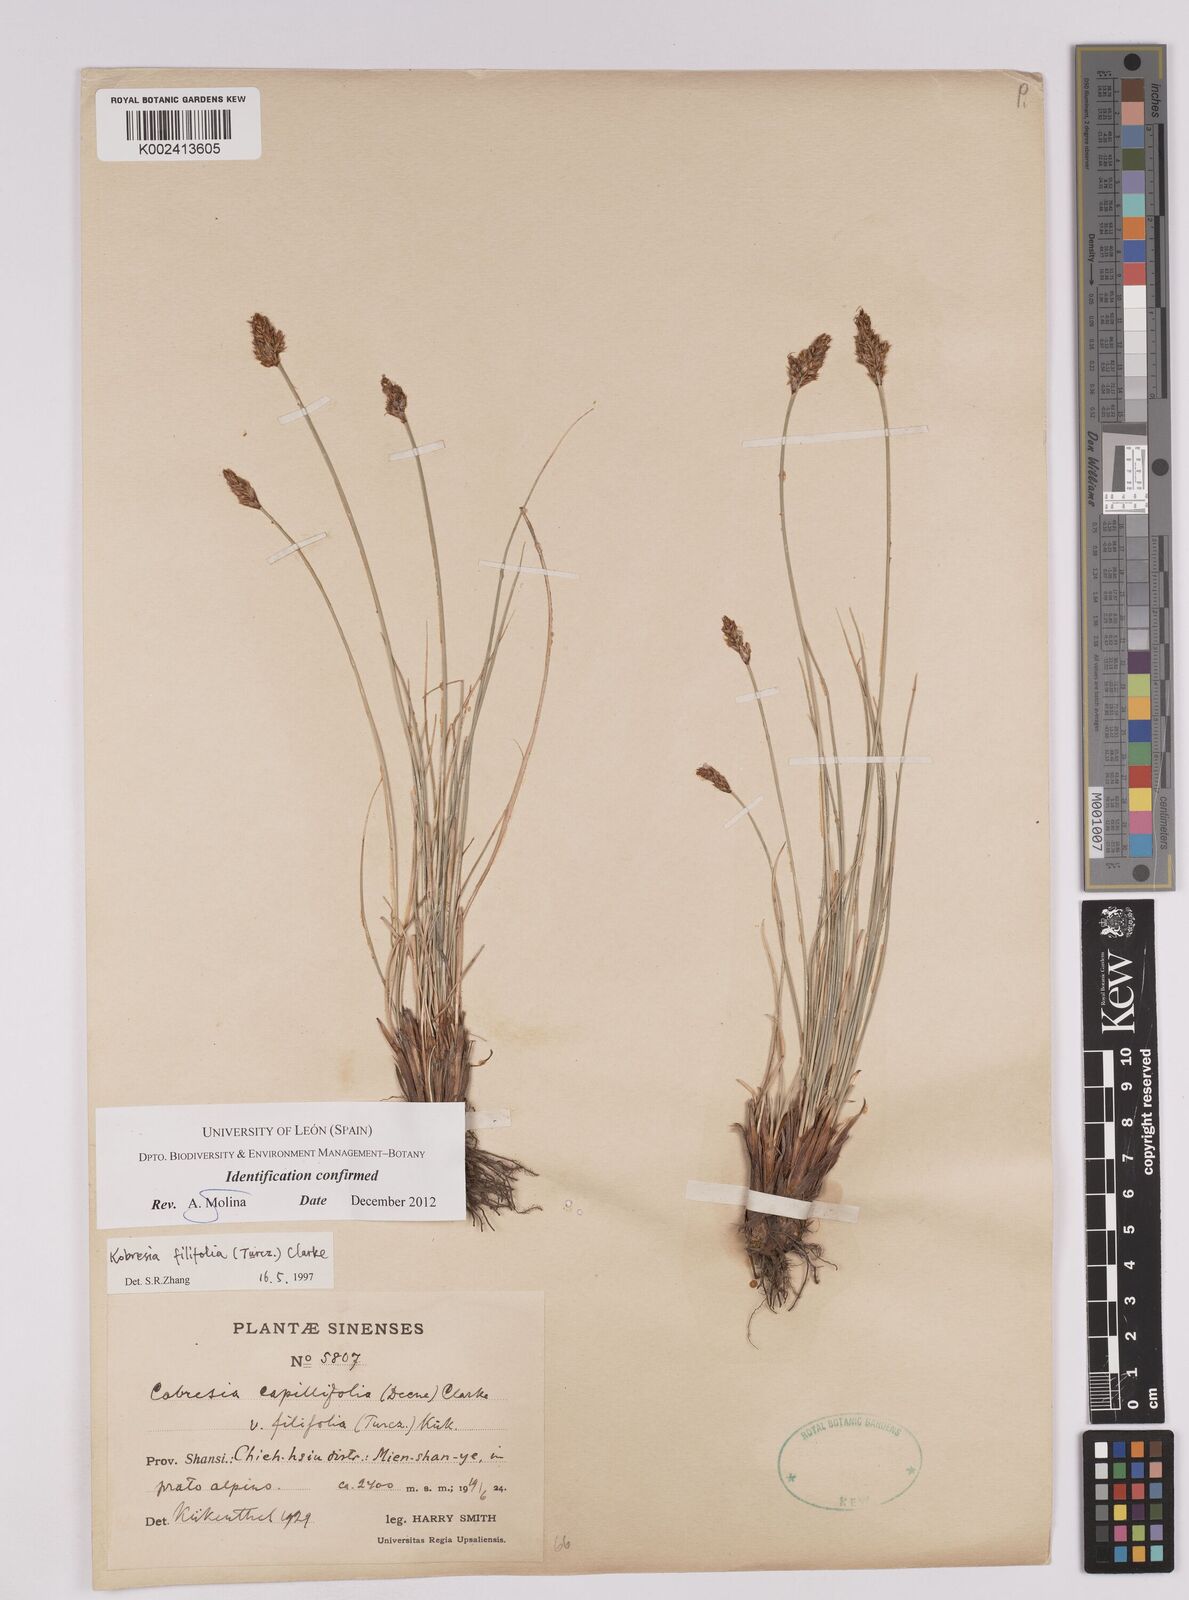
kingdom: Plantae
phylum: Tracheophyta
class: Liliopsida
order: Poales
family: Cyperaceae
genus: Carex
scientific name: Carex macroprophylla
